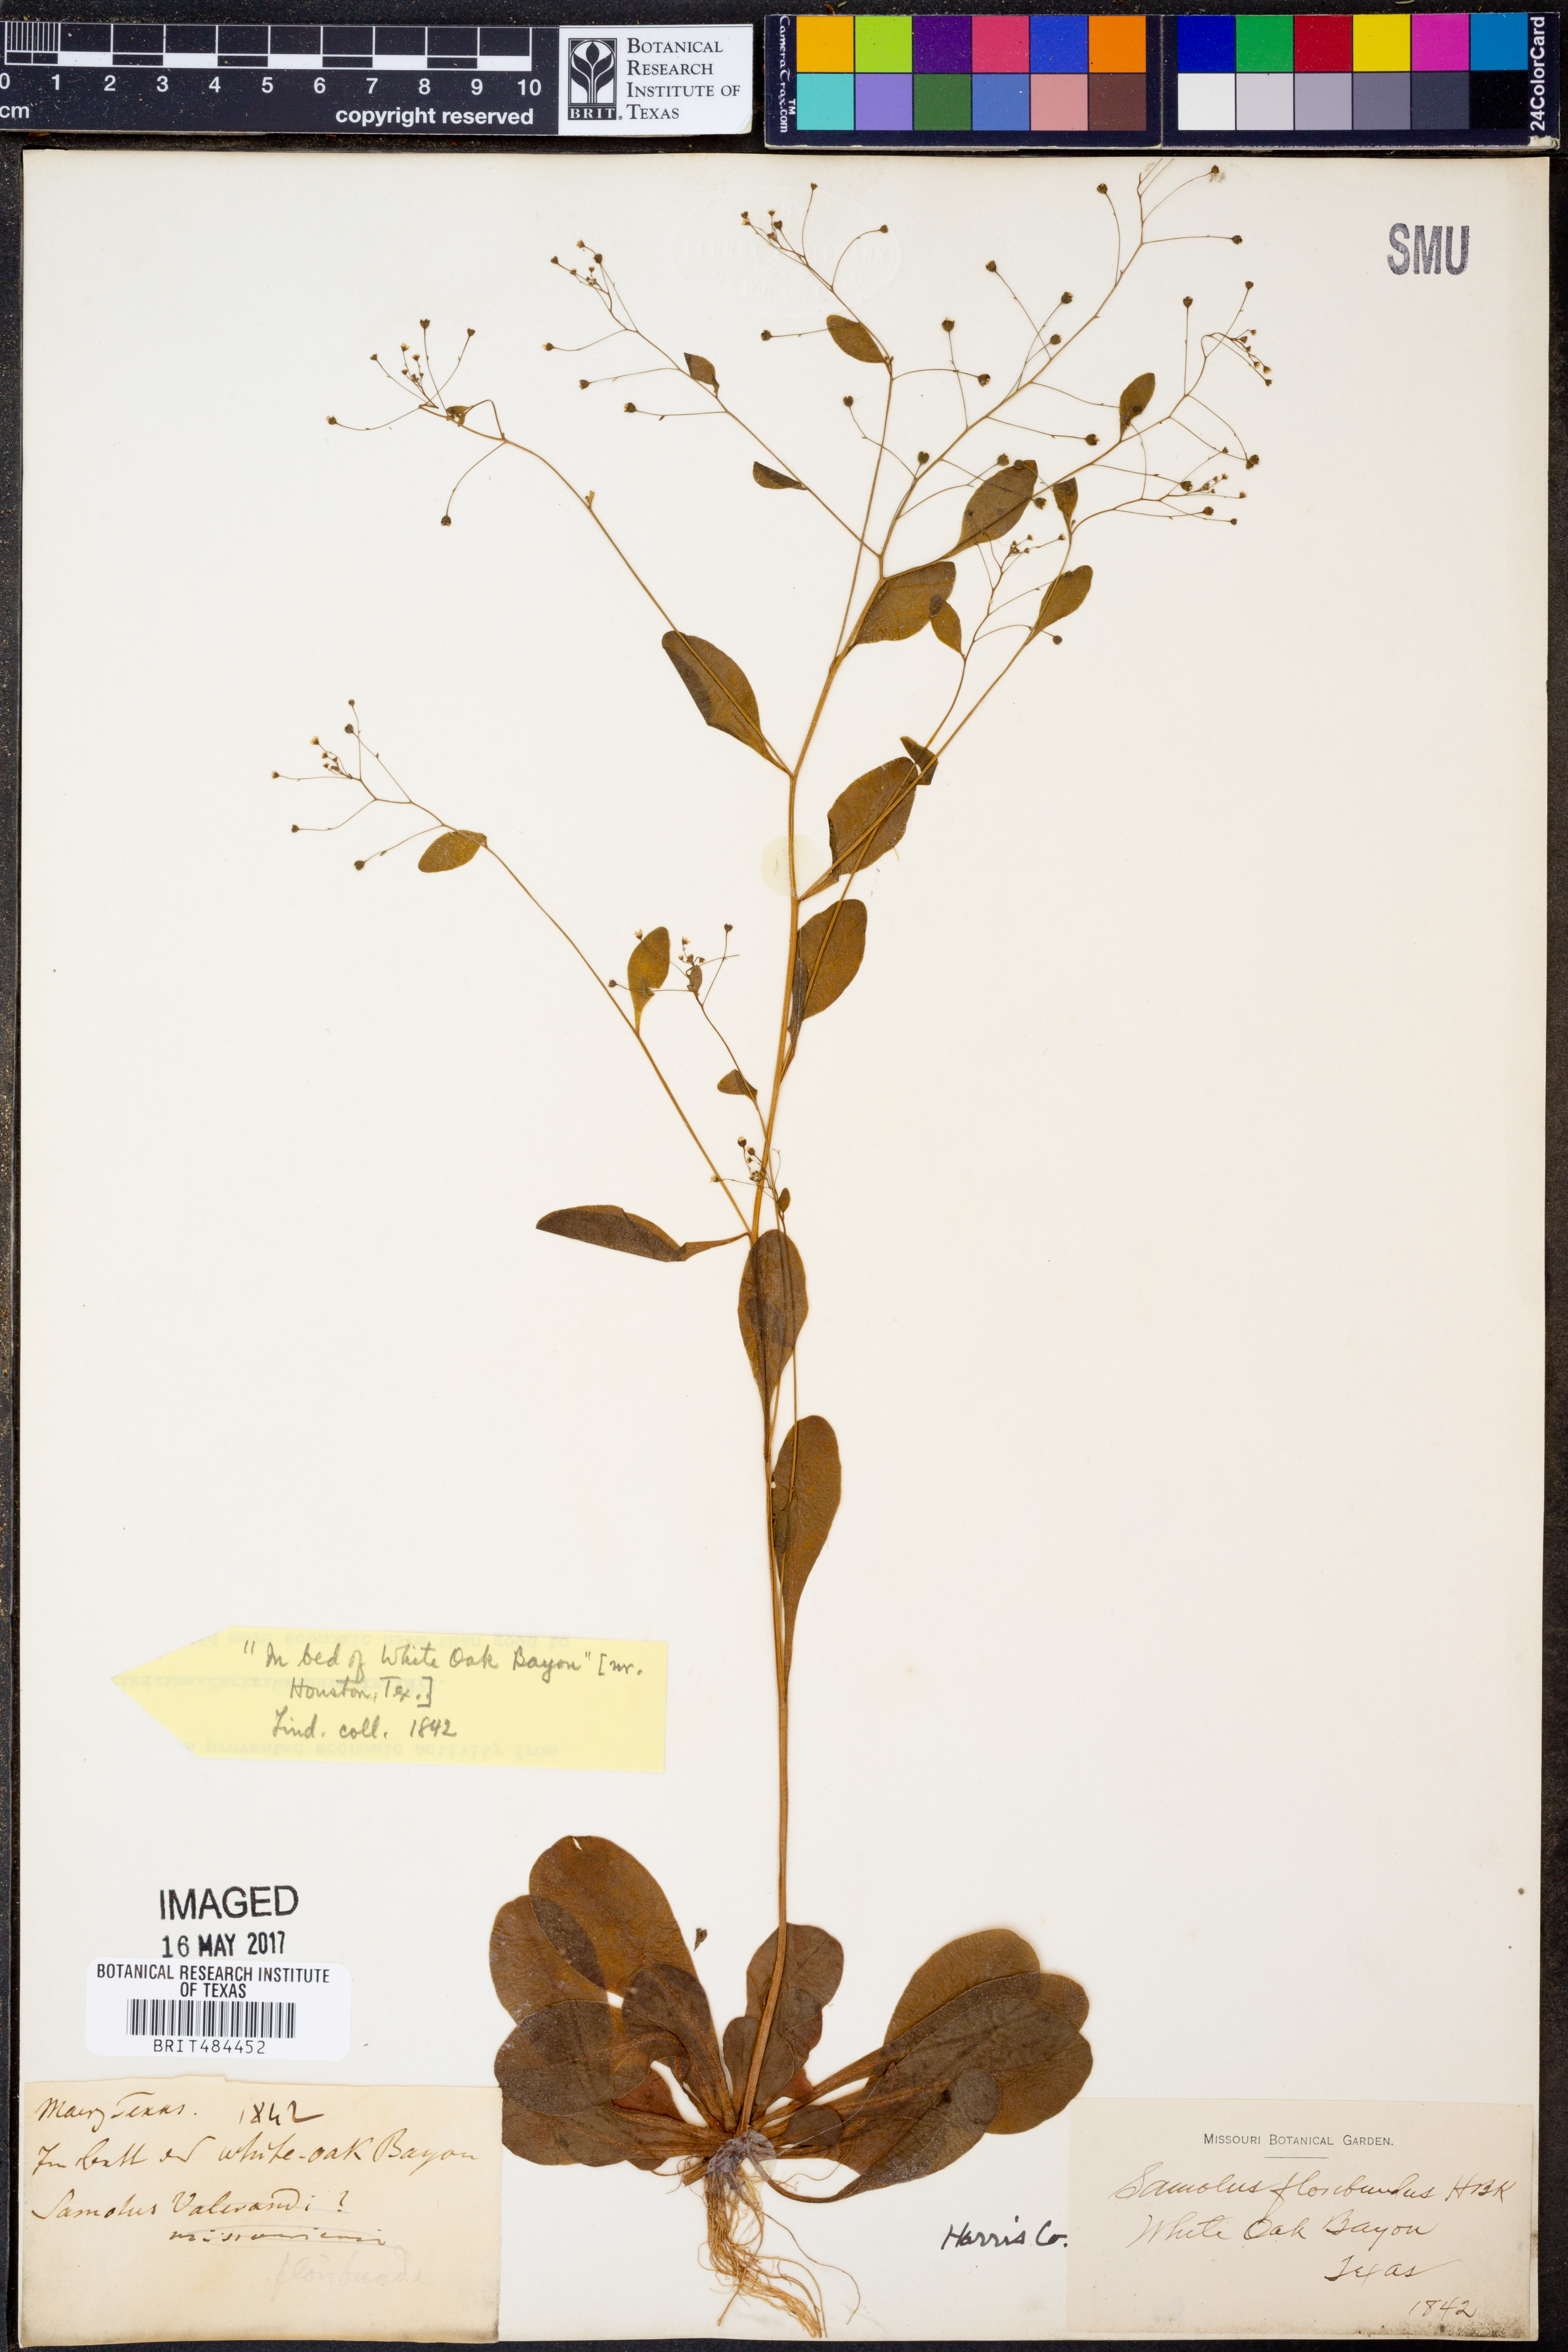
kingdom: Plantae
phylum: Tracheophyta
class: Magnoliopsida
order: Ericales
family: Primulaceae
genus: Samolus
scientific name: Samolus parviflorus
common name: False water pimpernel
